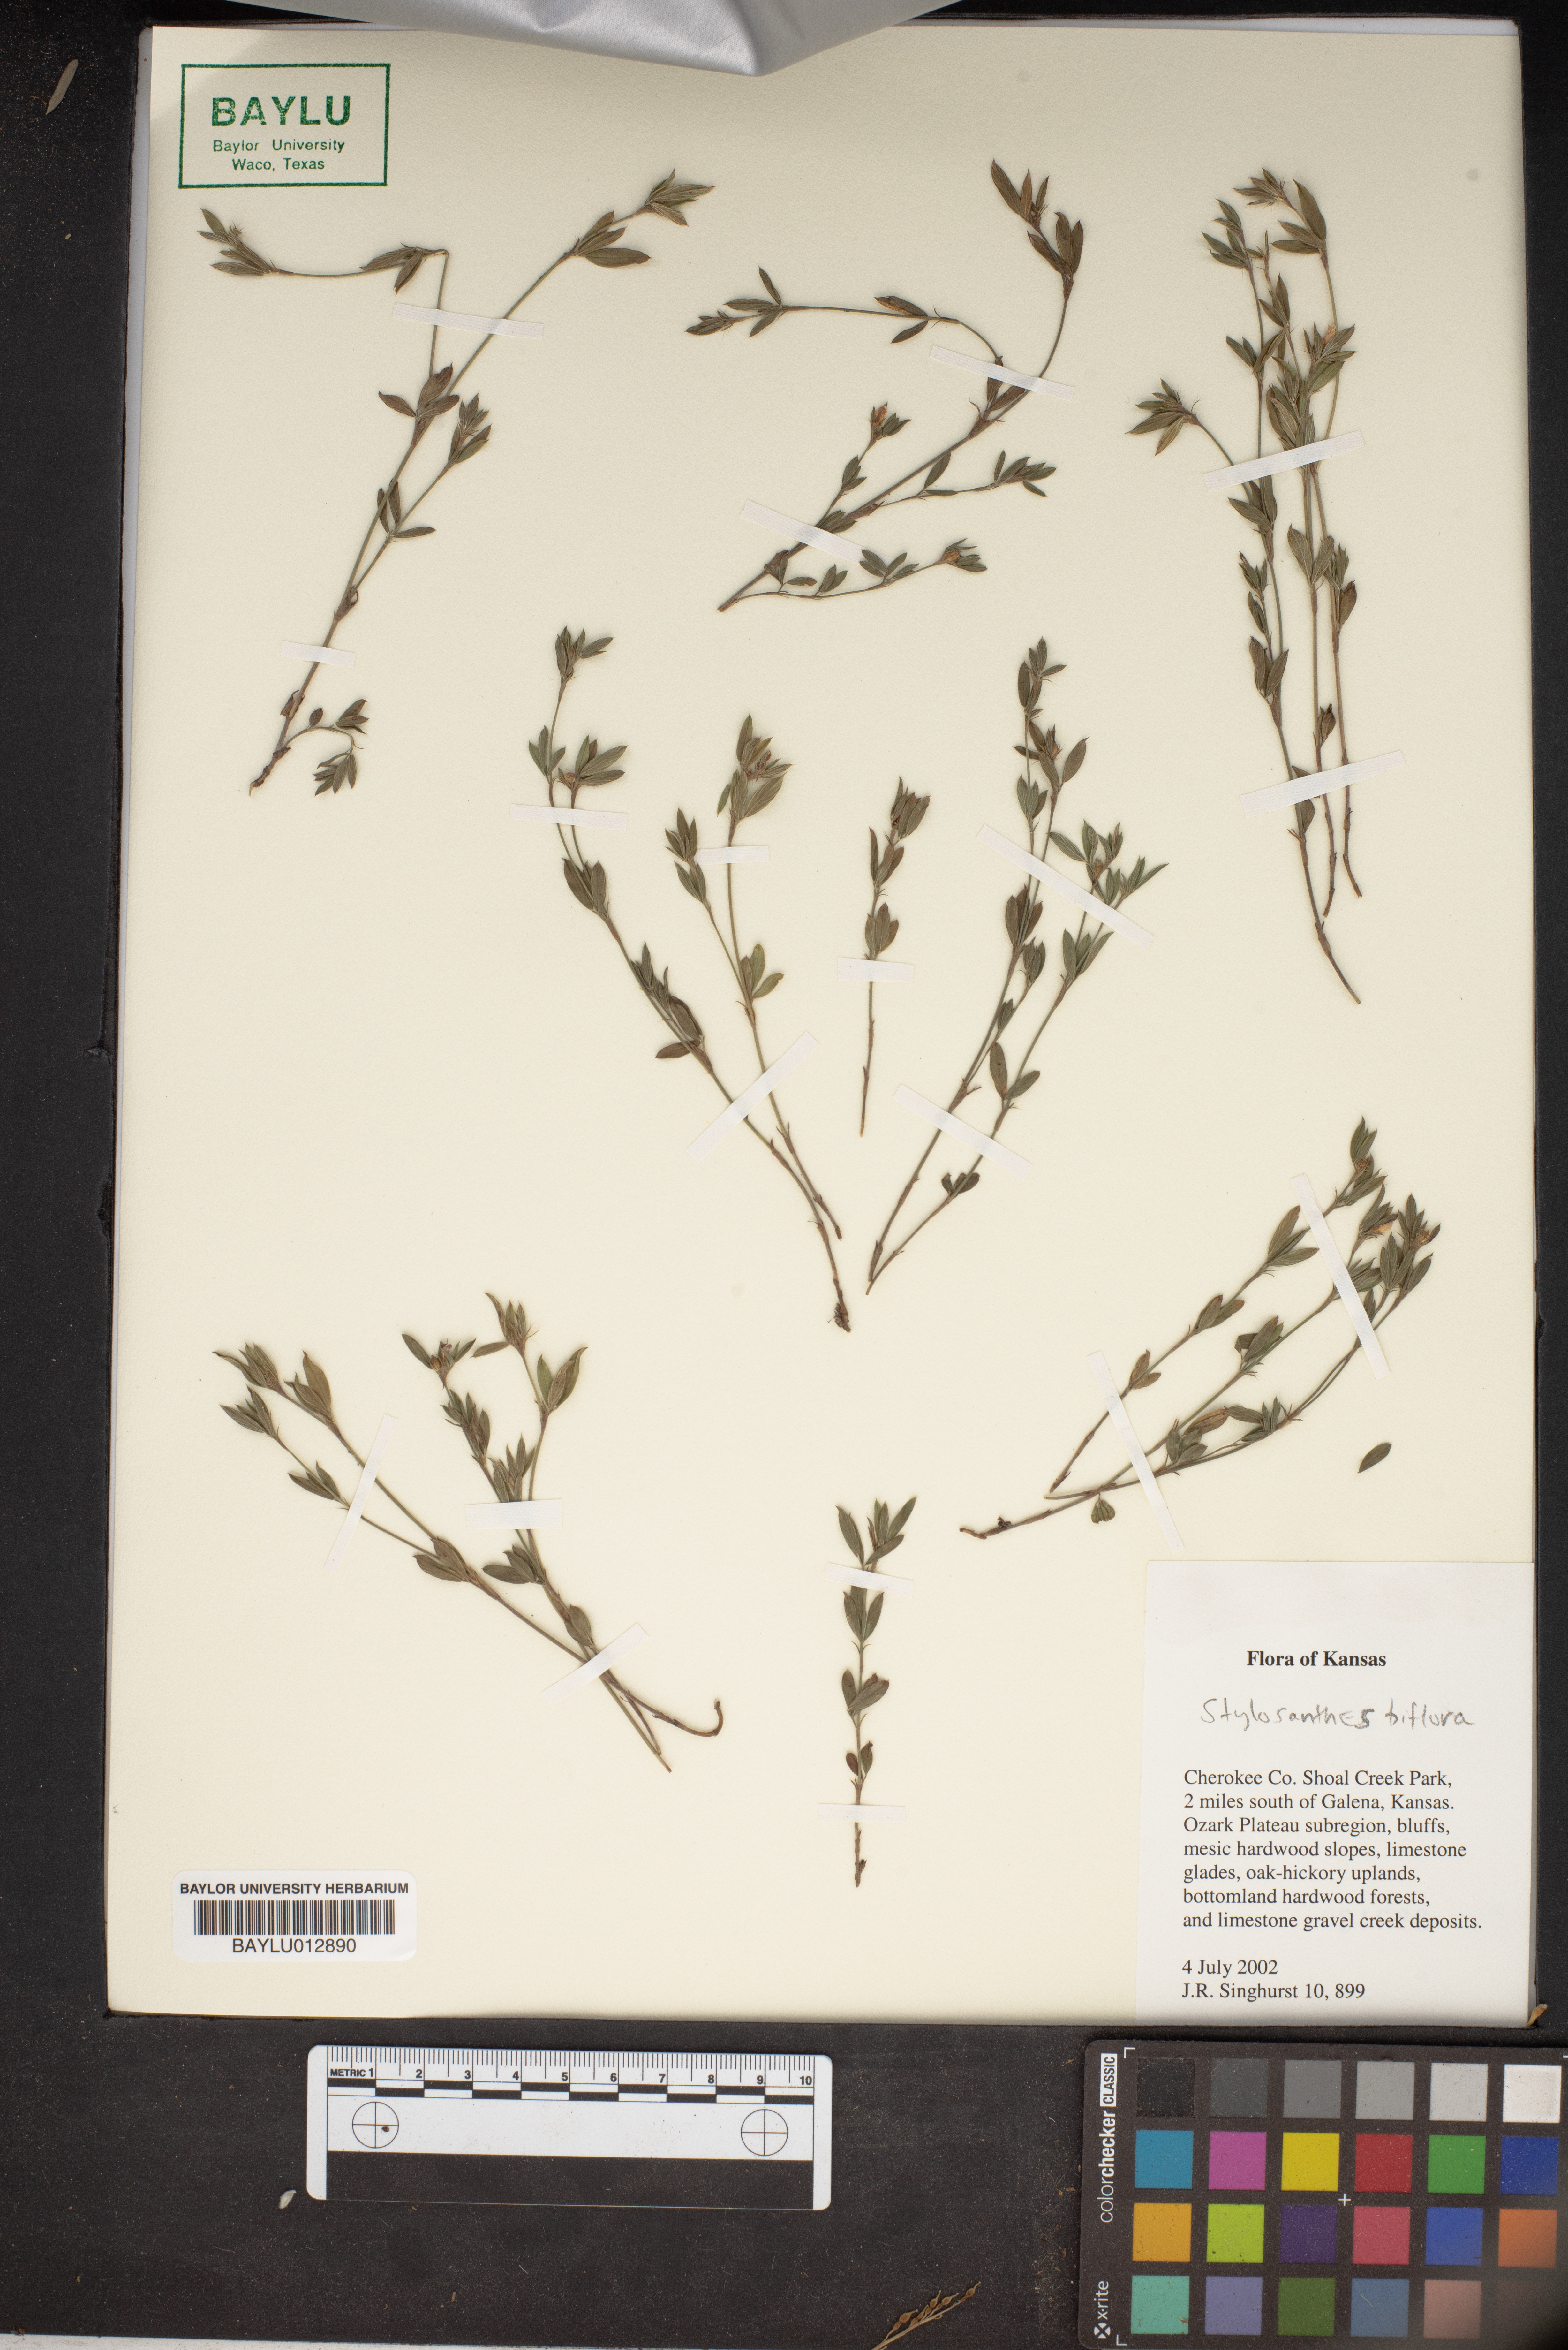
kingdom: Plantae
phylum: Tracheophyta
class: Magnoliopsida
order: Fabales
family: Fabaceae
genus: Stylosanthes
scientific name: Stylosanthes biflora
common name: Two-flower pencil-flower
